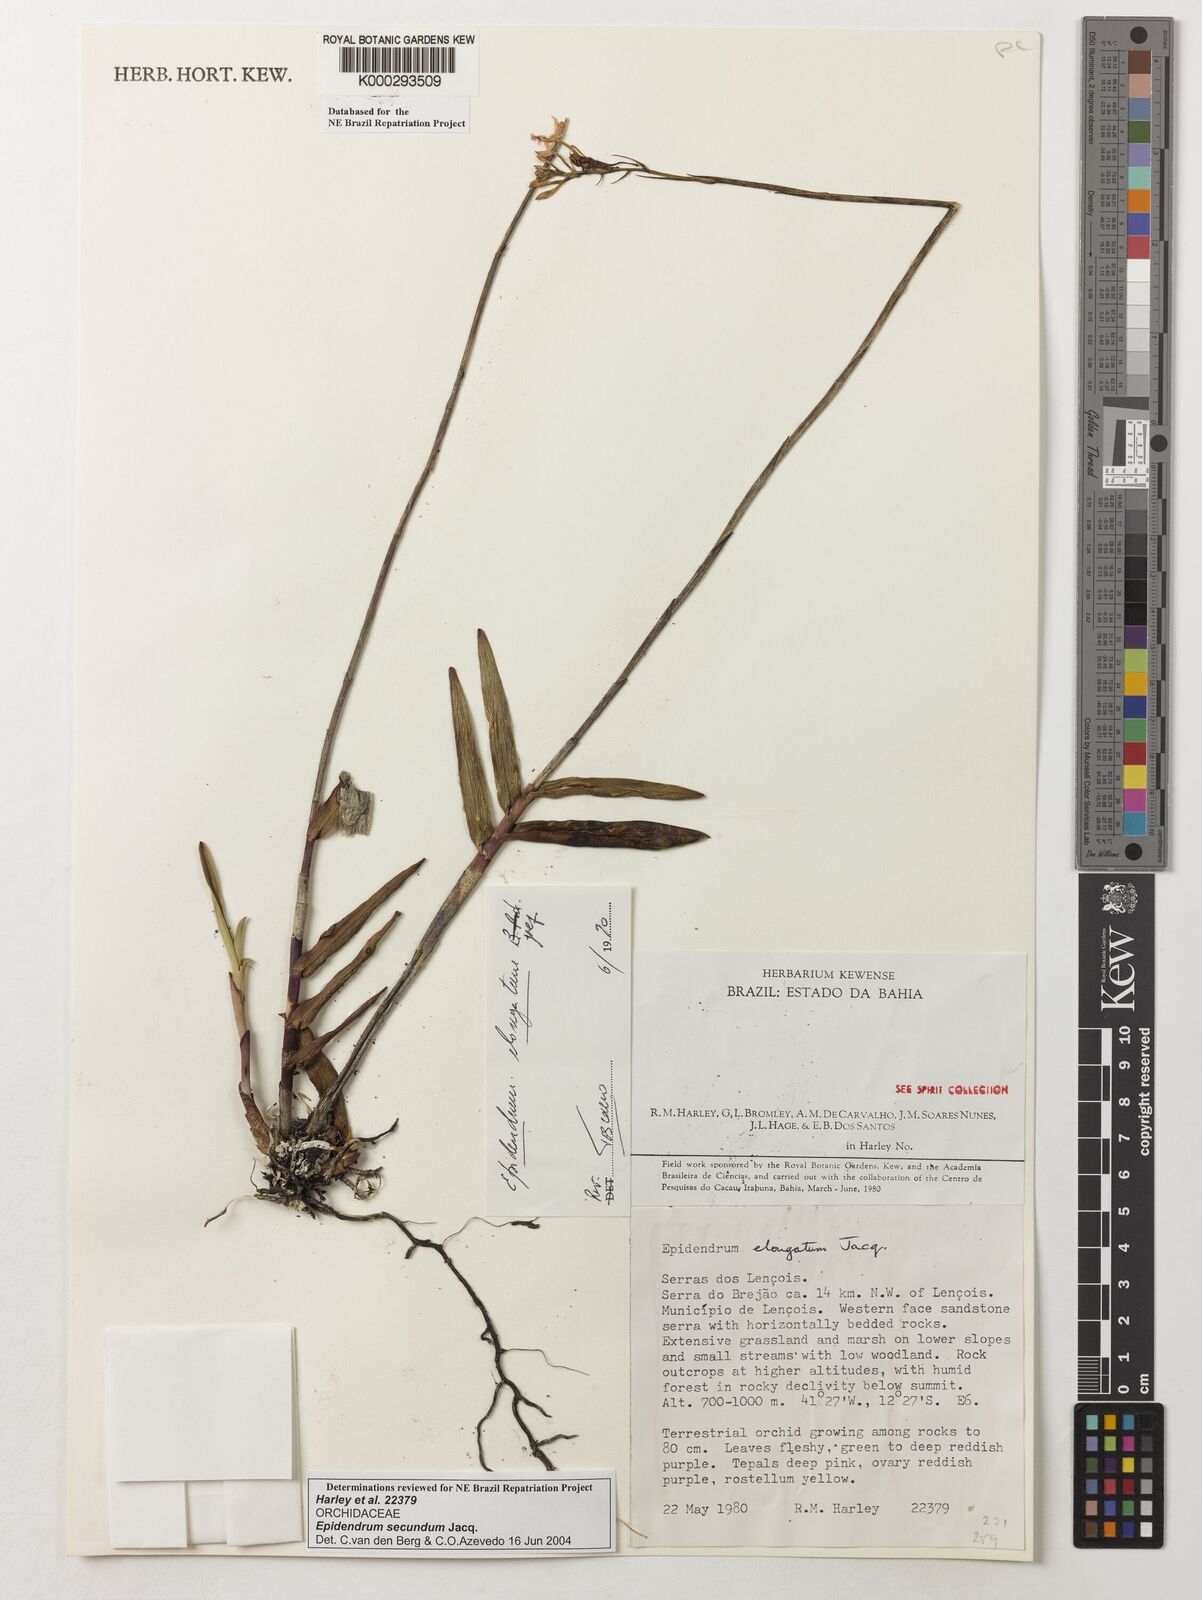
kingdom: Plantae
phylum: Tracheophyta
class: Liliopsida
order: Asparagales
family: Orchidaceae
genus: Epidendrum
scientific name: Epidendrum secundum
